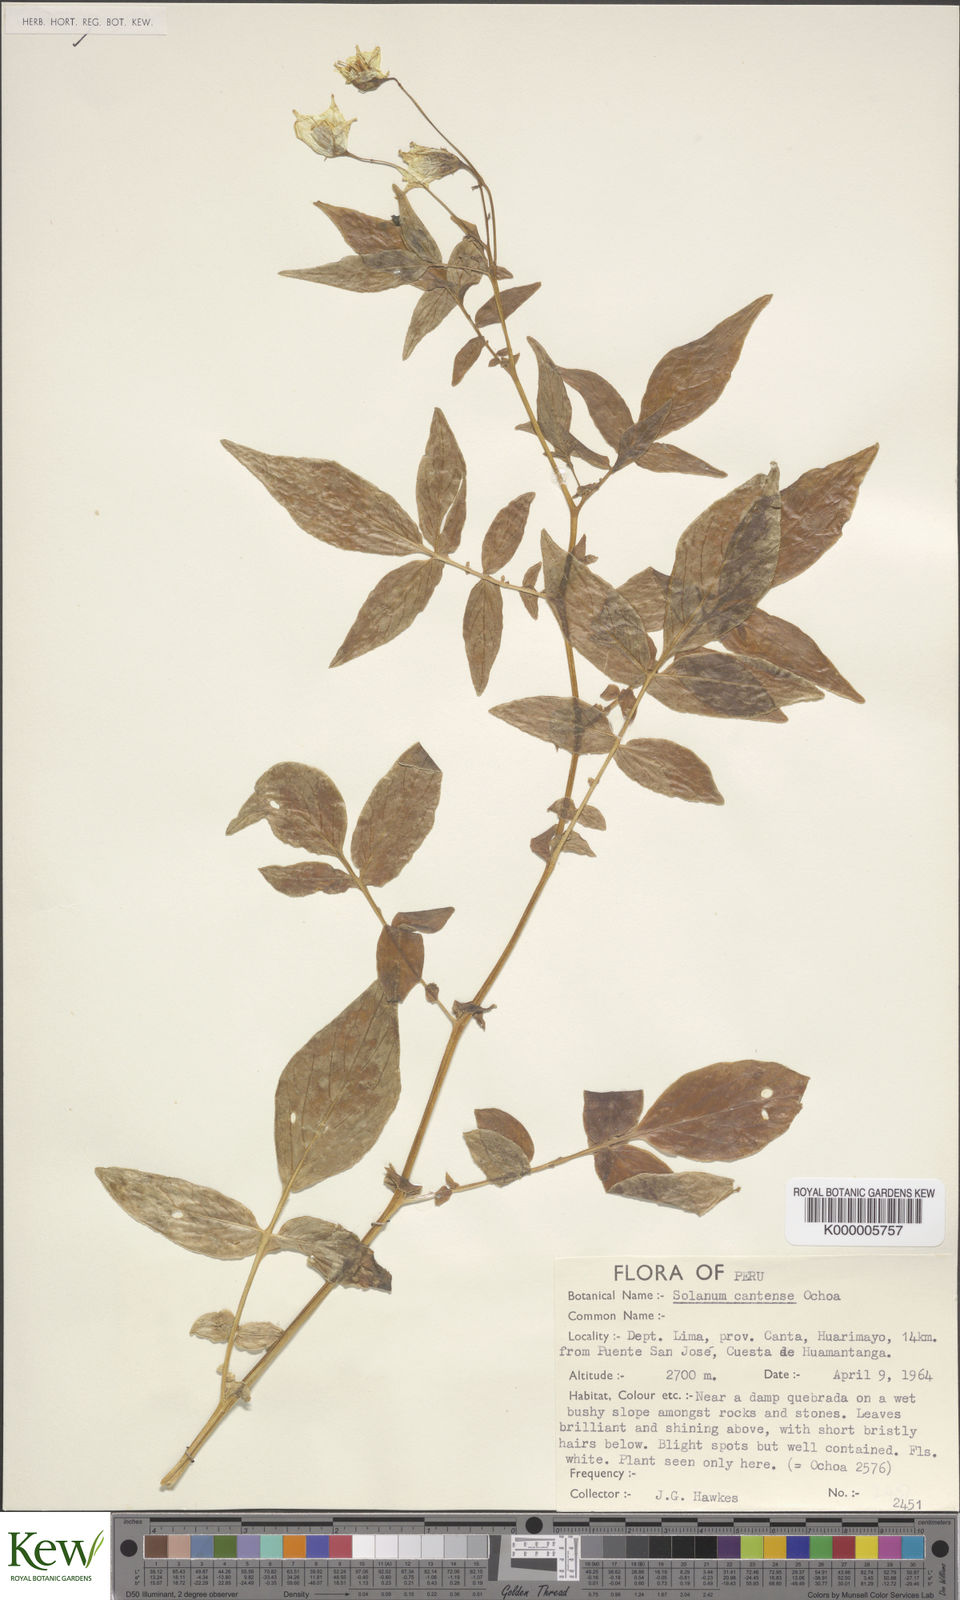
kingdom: Plantae
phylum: Tracheophyta
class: Magnoliopsida
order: Solanales
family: Solanaceae
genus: Solanum
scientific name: Solanum cantense
